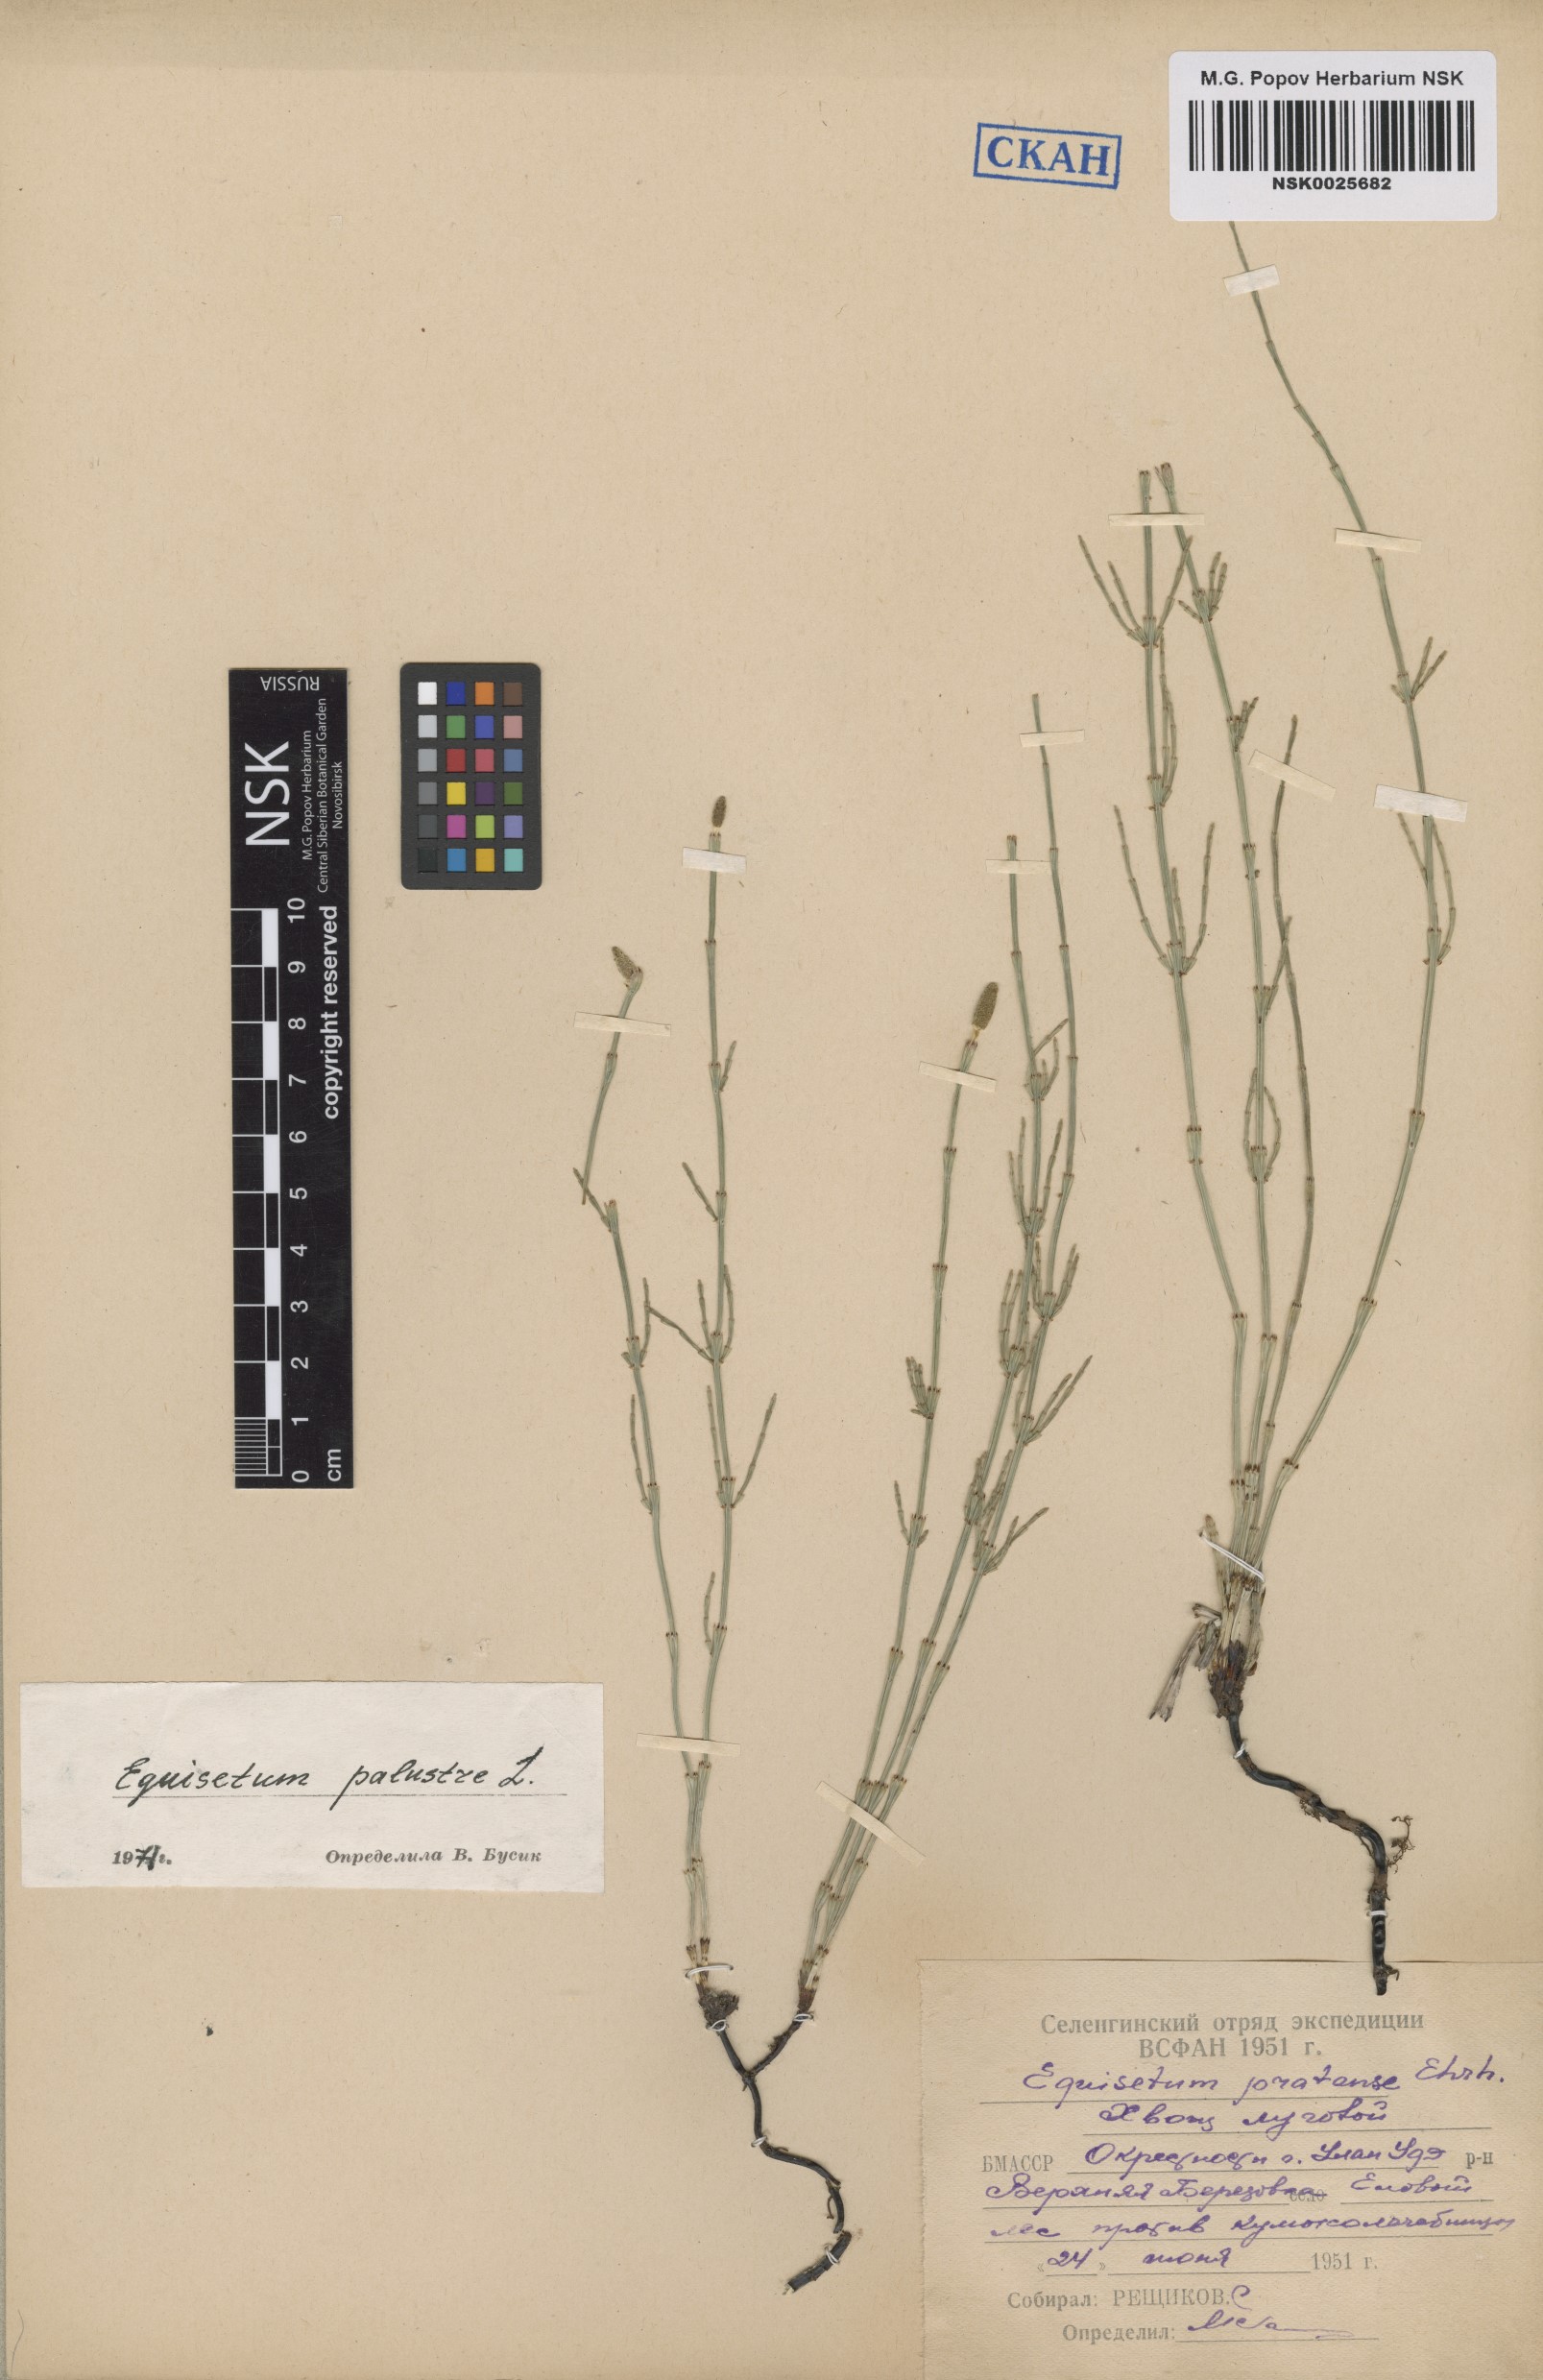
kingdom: Plantae
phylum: Tracheophyta
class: Polypodiopsida
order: Equisetales
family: Equisetaceae
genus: Equisetum
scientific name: Equisetum palustre
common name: Marsh horsetail
